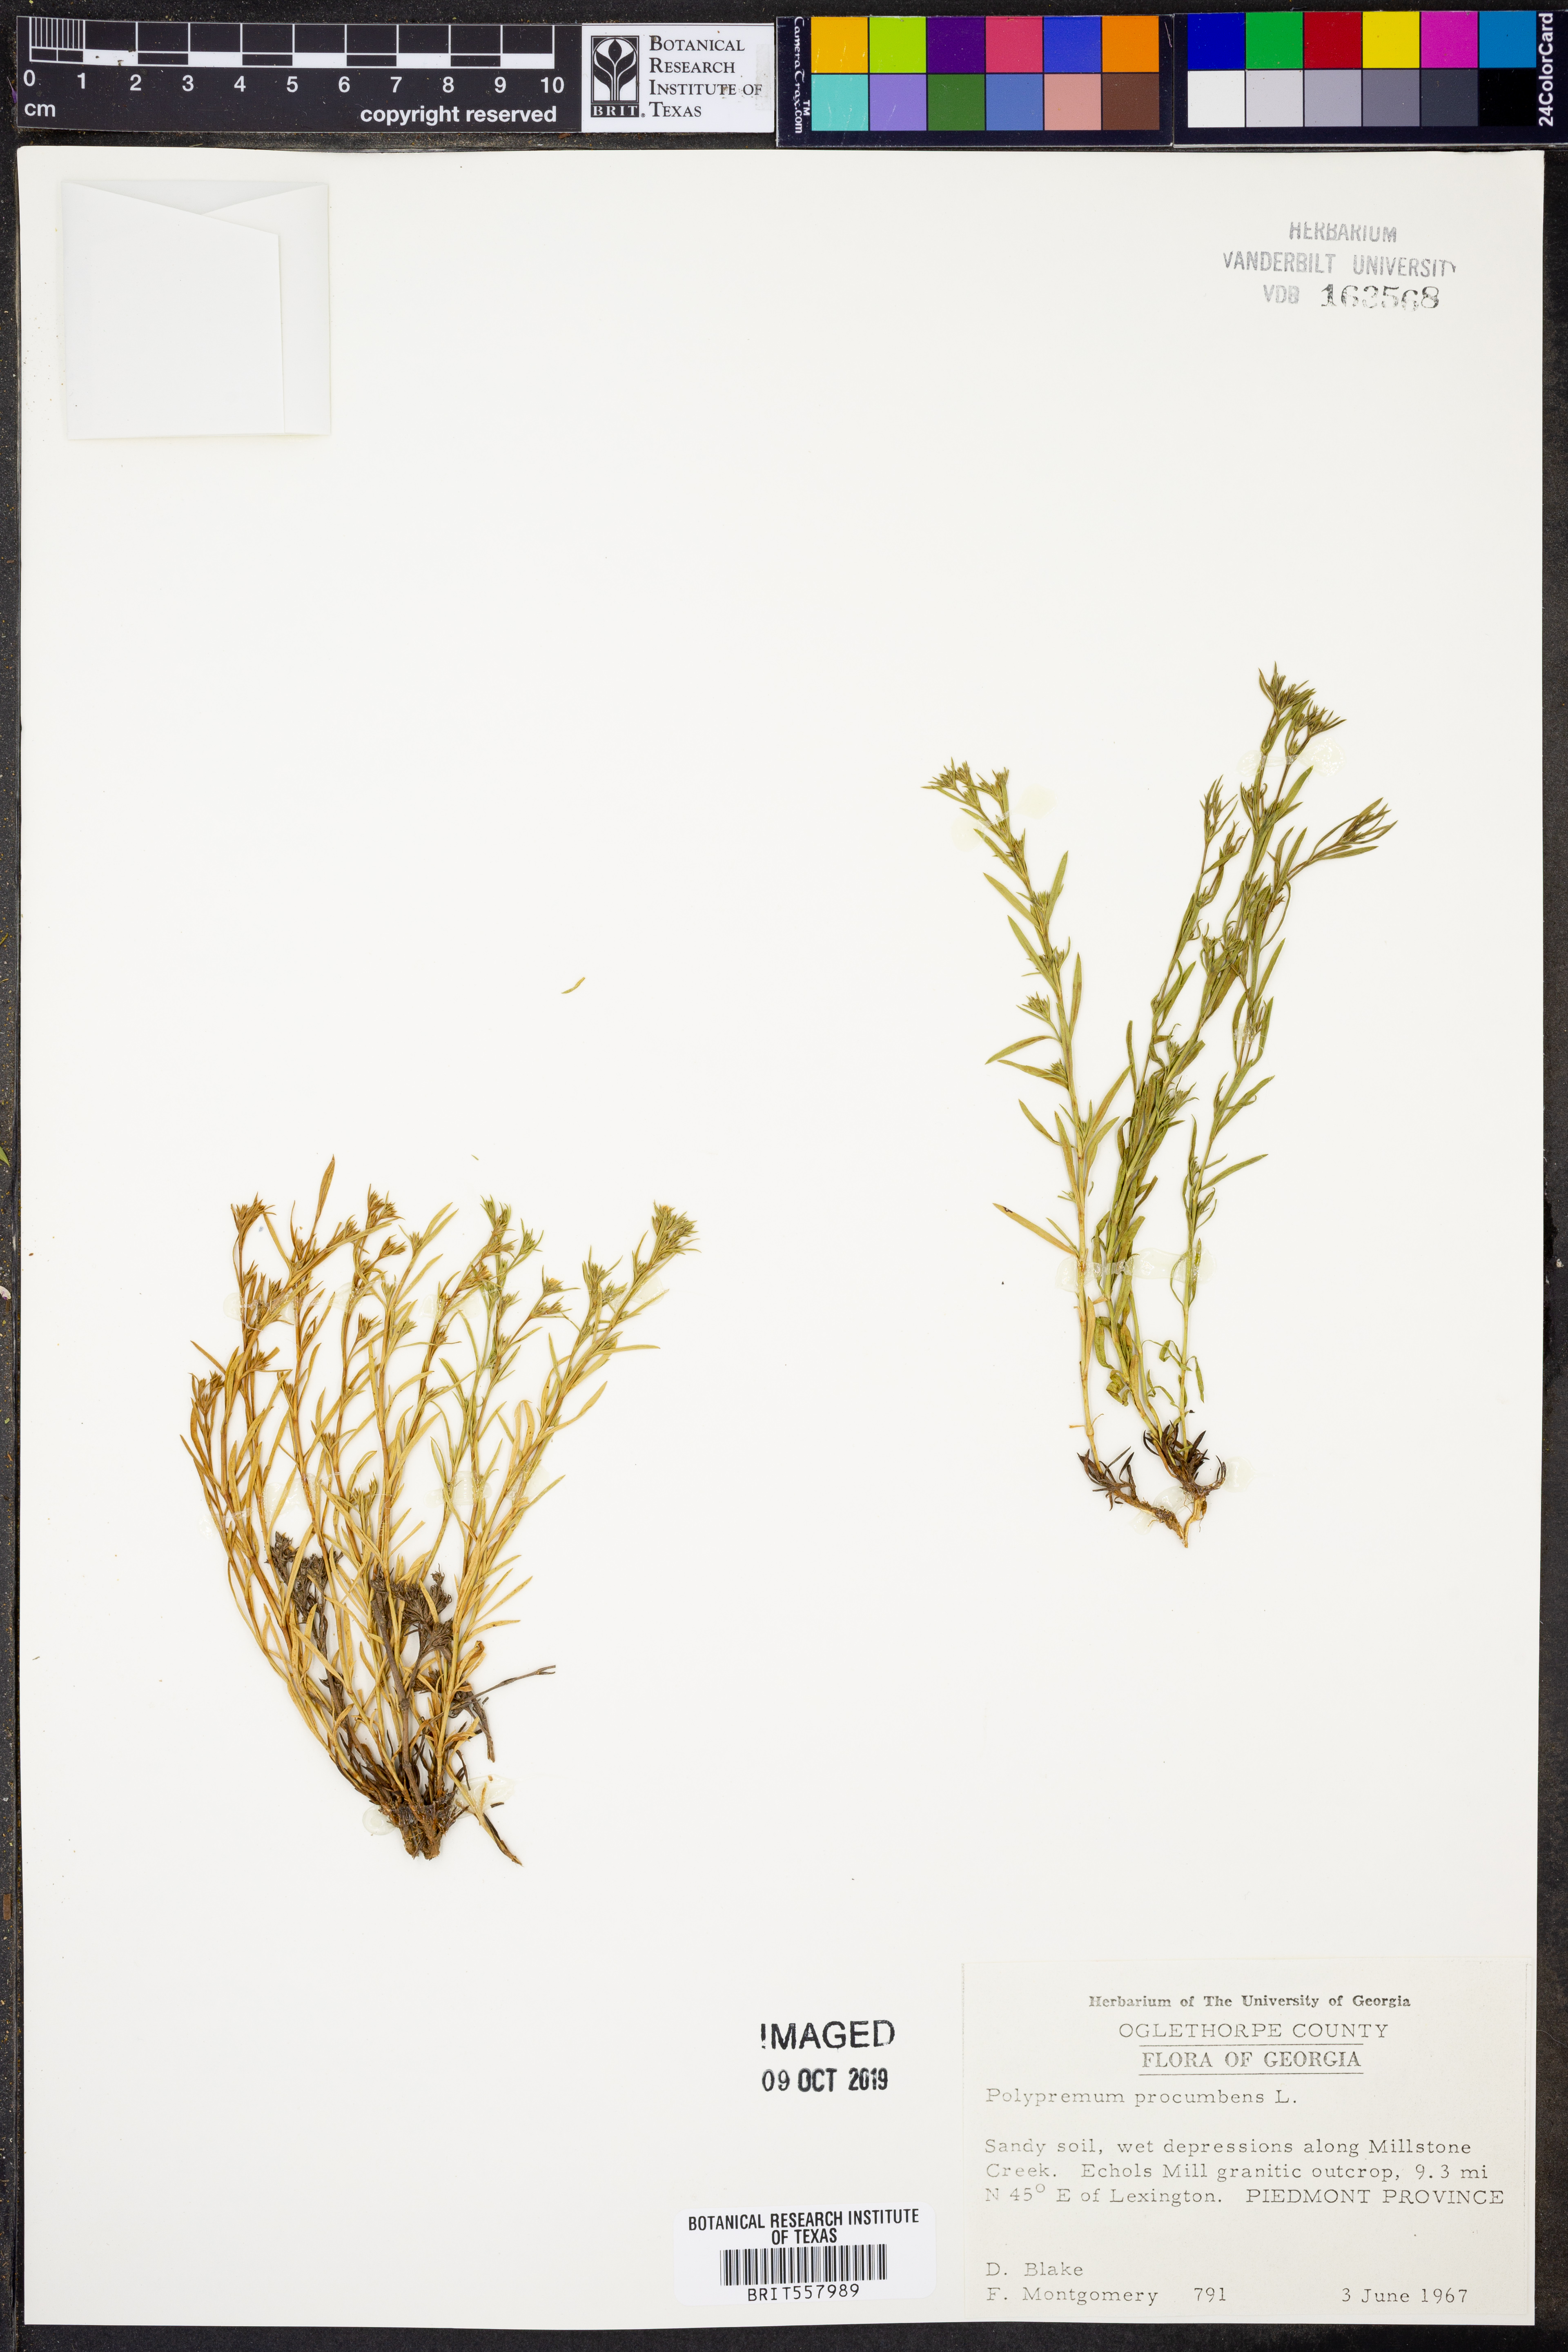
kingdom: Plantae
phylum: Tracheophyta
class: Magnoliopsida
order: Lamiales
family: Tetrachondraceae
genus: Polypremum
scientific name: Polypremum procumbens
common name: Juniper-leaf
